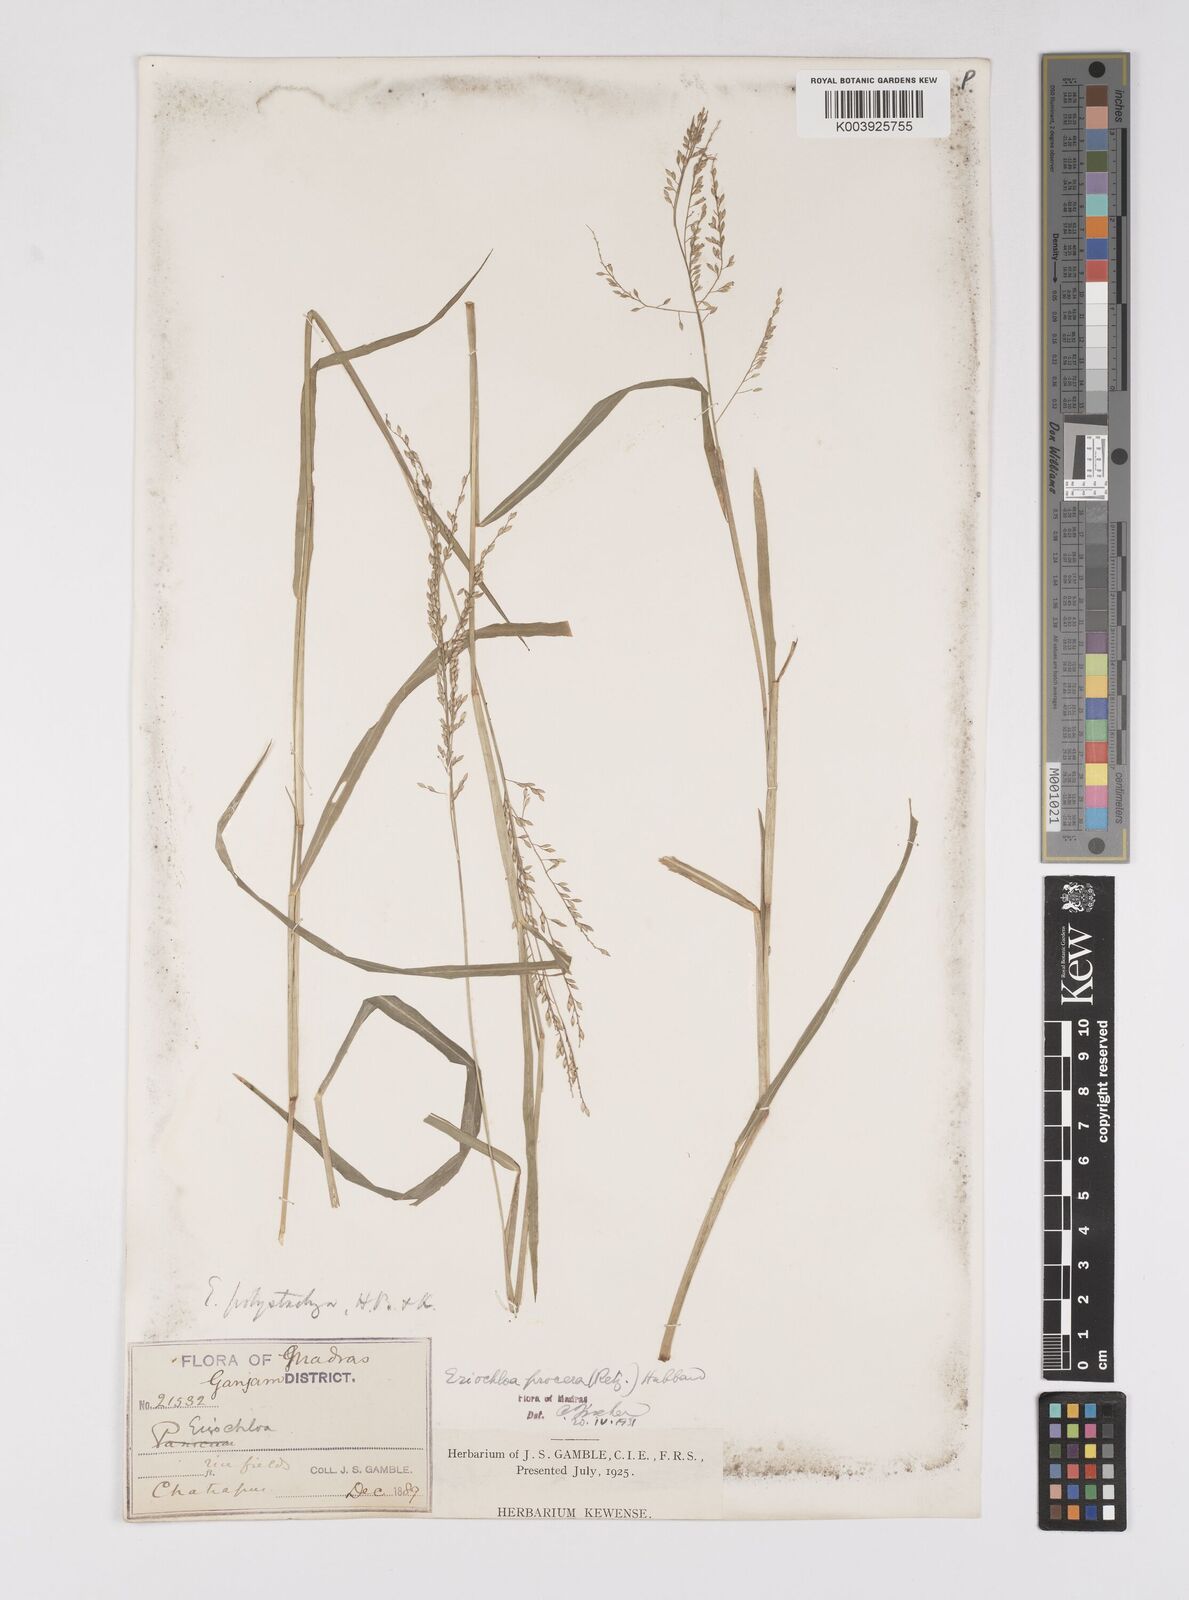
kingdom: Plantae
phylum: Tracheophyta
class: Liliopsida
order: Poales
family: Poaceae
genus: Eriochloa
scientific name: Eriochloa procera
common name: Spring grass
